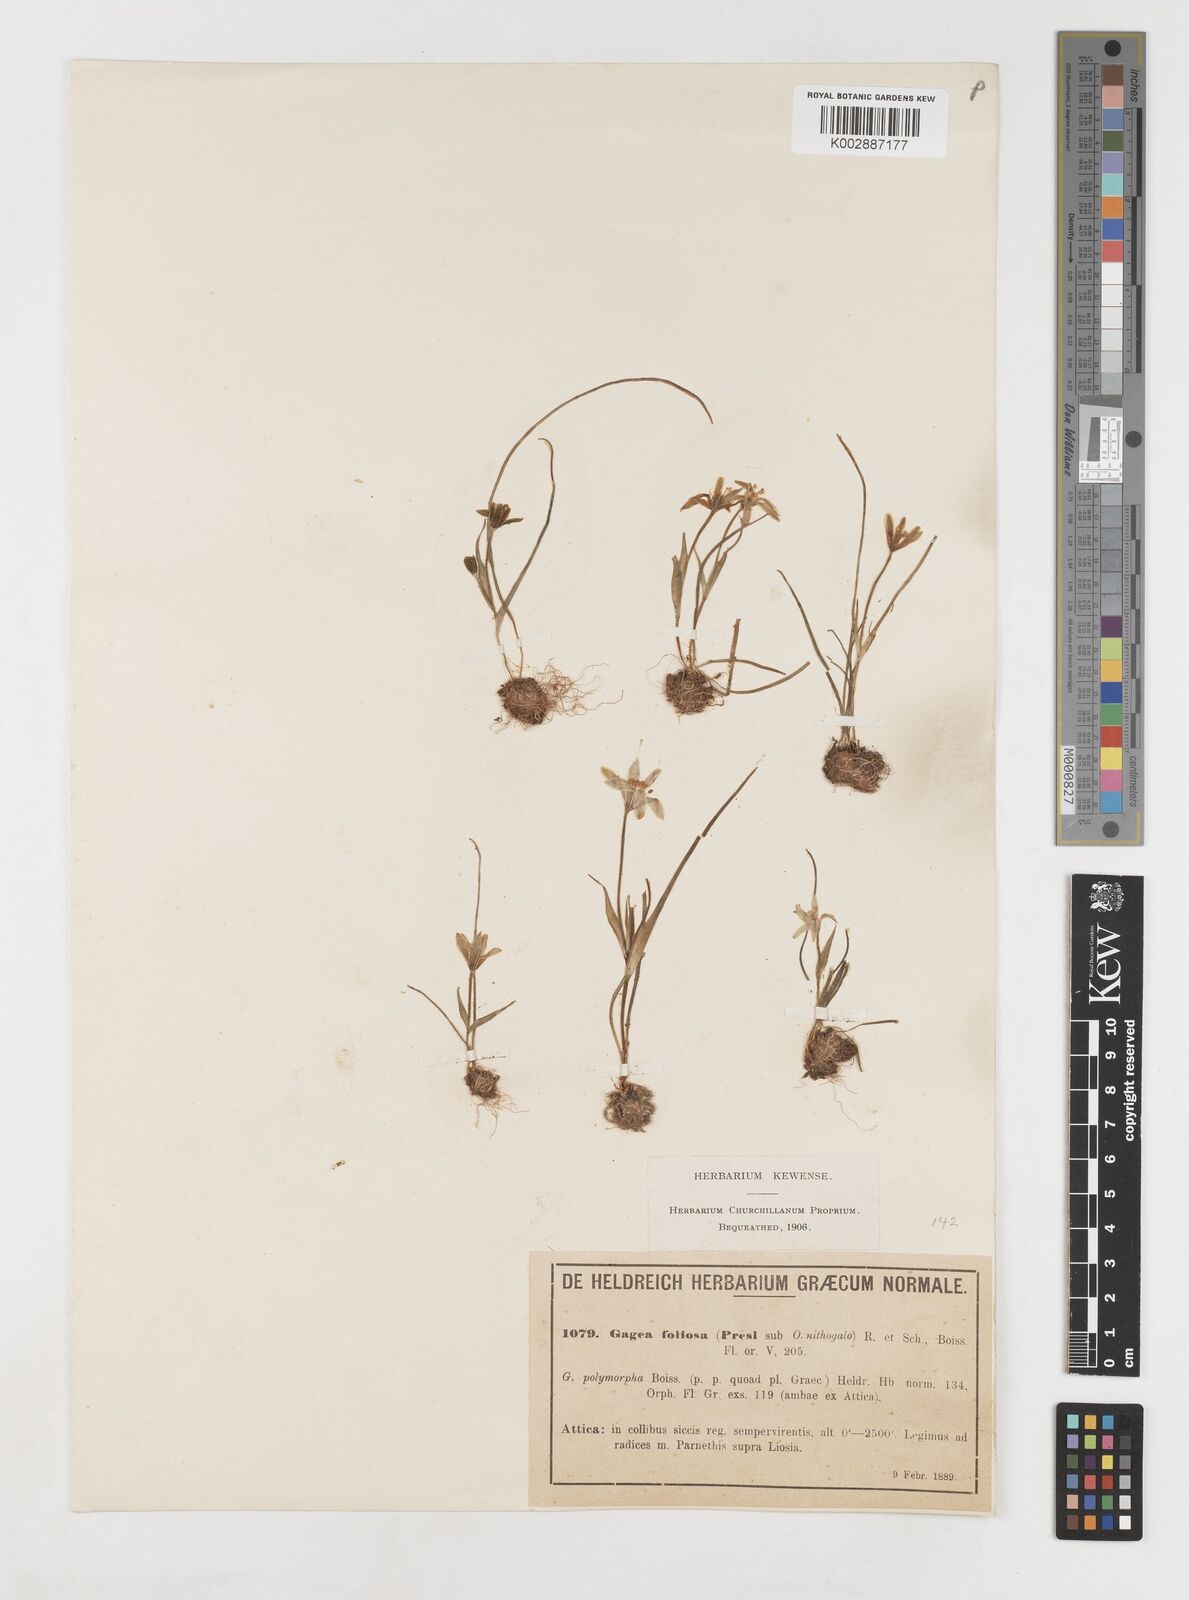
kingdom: Plantae
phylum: Tracheophyta
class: Liliopsida
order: Liliales
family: Liliaceae
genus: Gagea
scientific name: Gagea peduncularis
